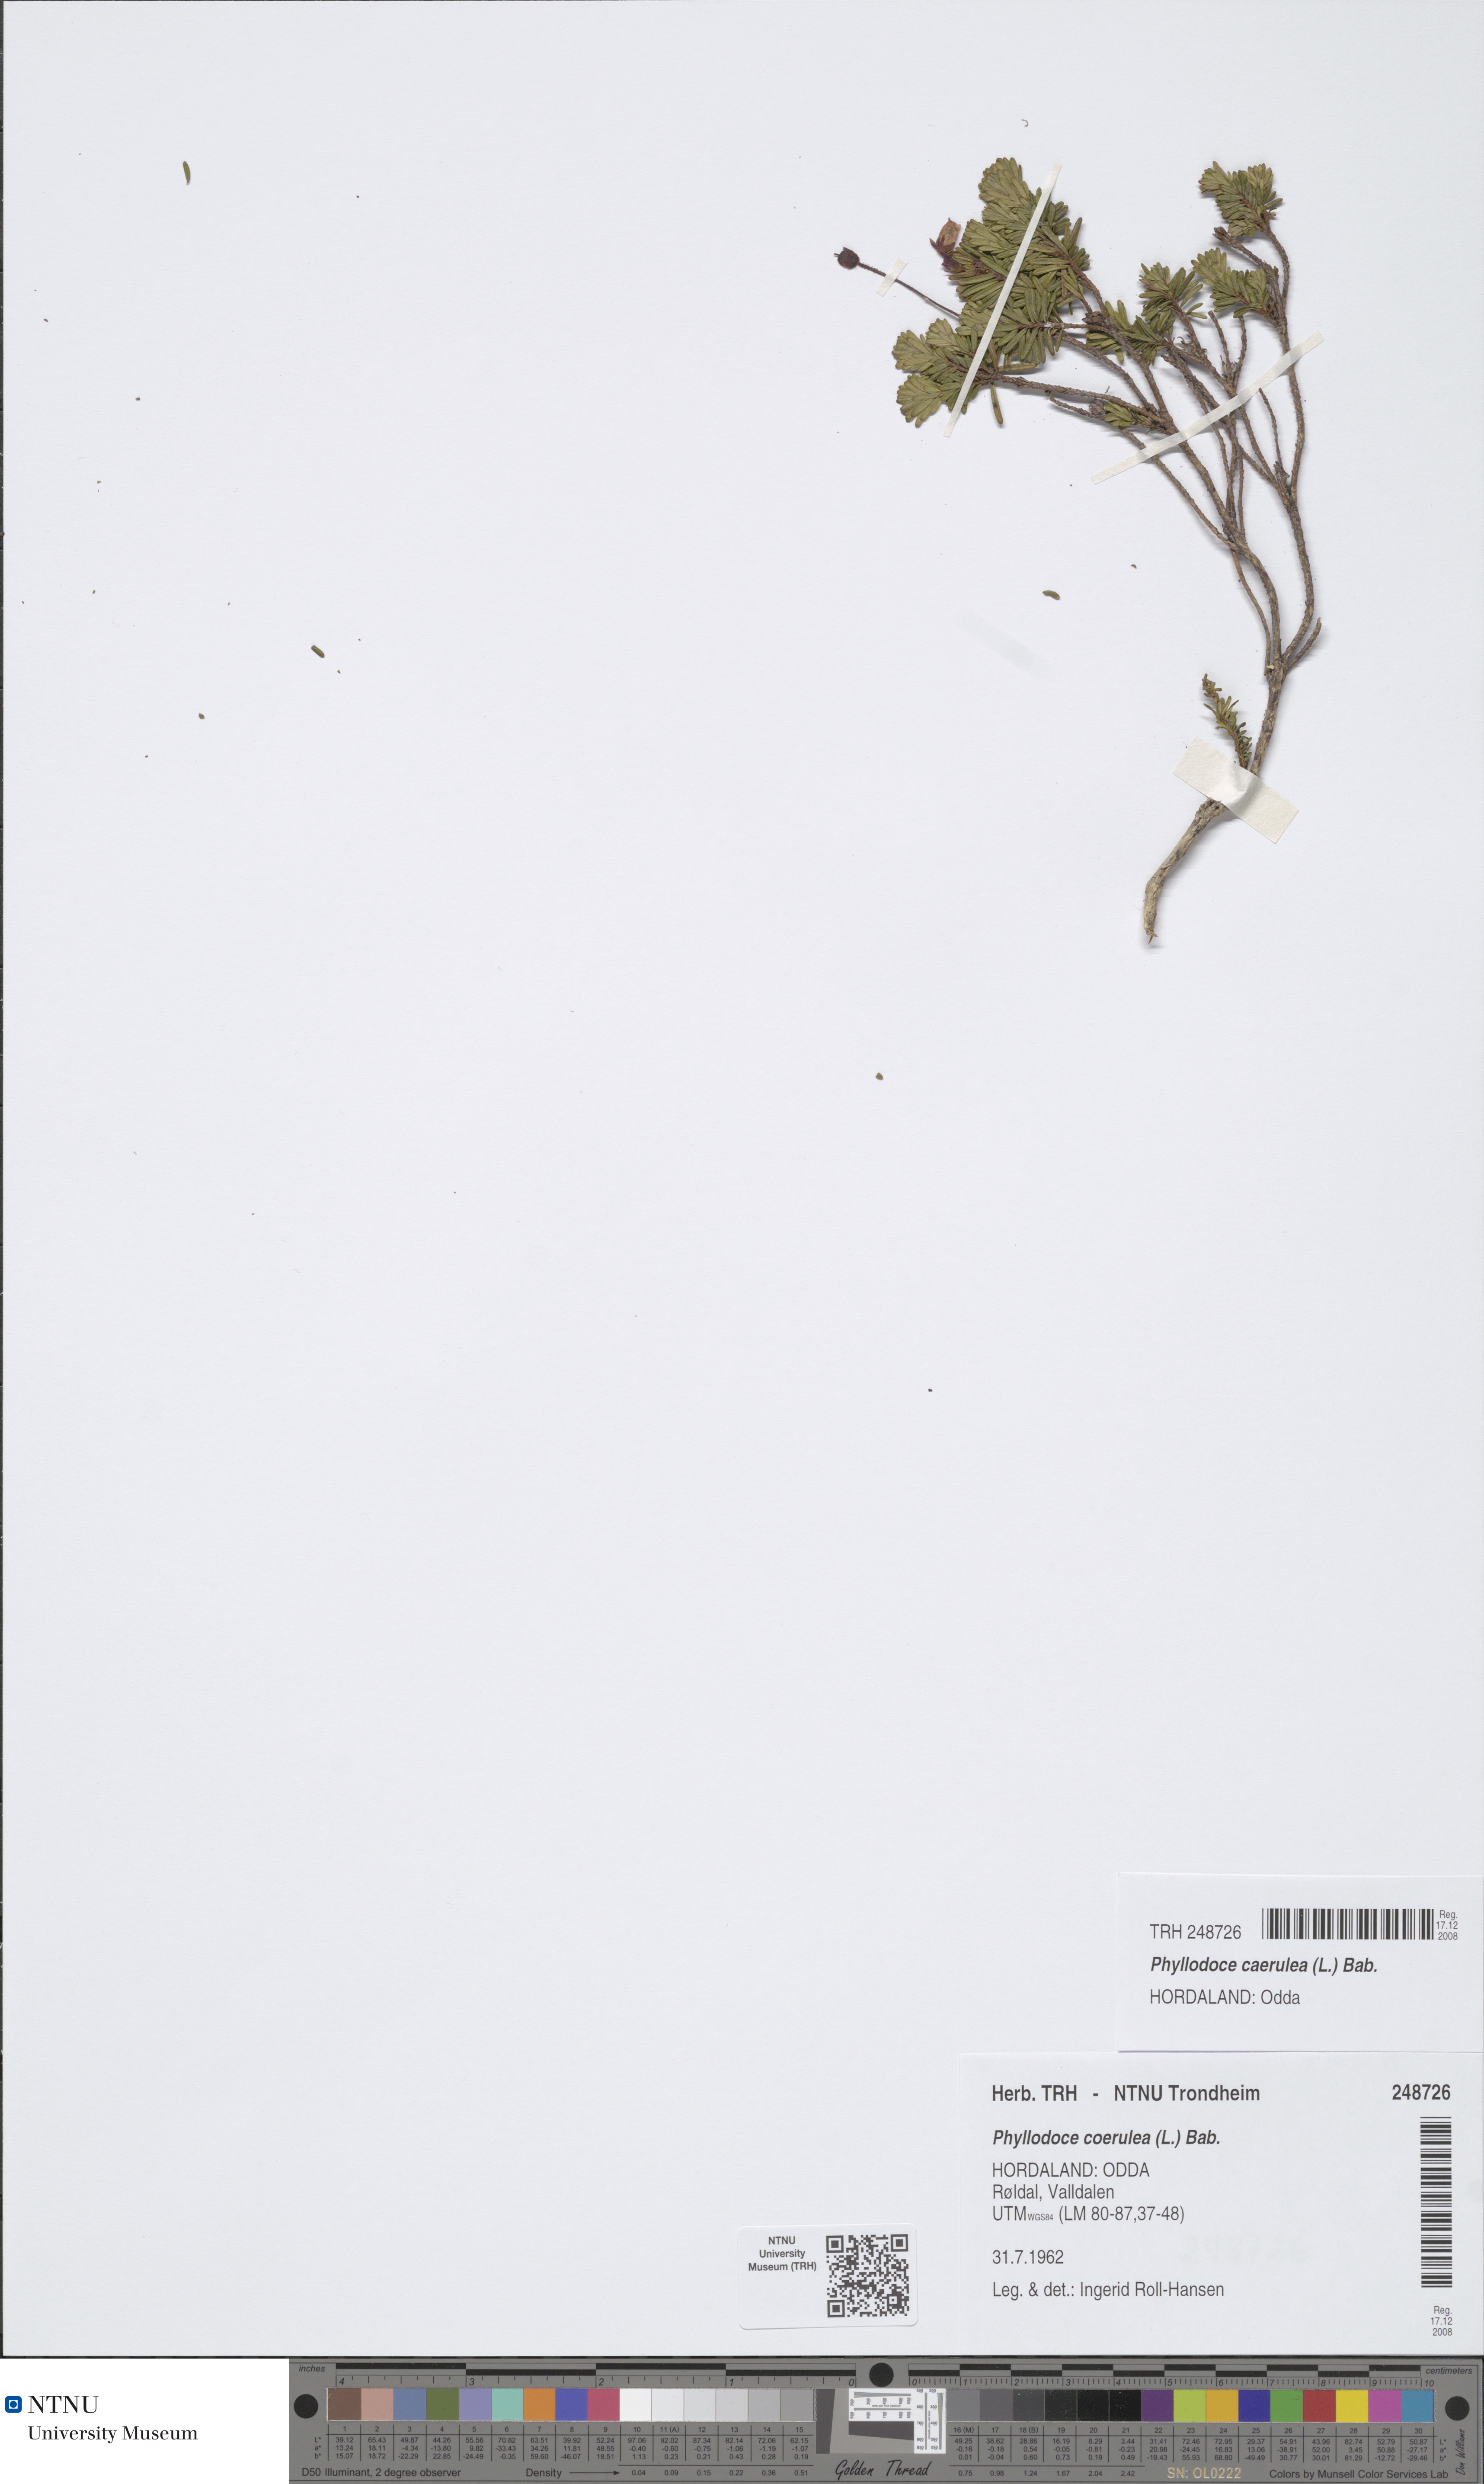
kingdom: Plantae
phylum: Tracheophyta
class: Magnoliopsida
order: Ericales
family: Ericaceae
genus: Phyllodoce
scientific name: Phyllodoce caerulea
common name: Blue heath
